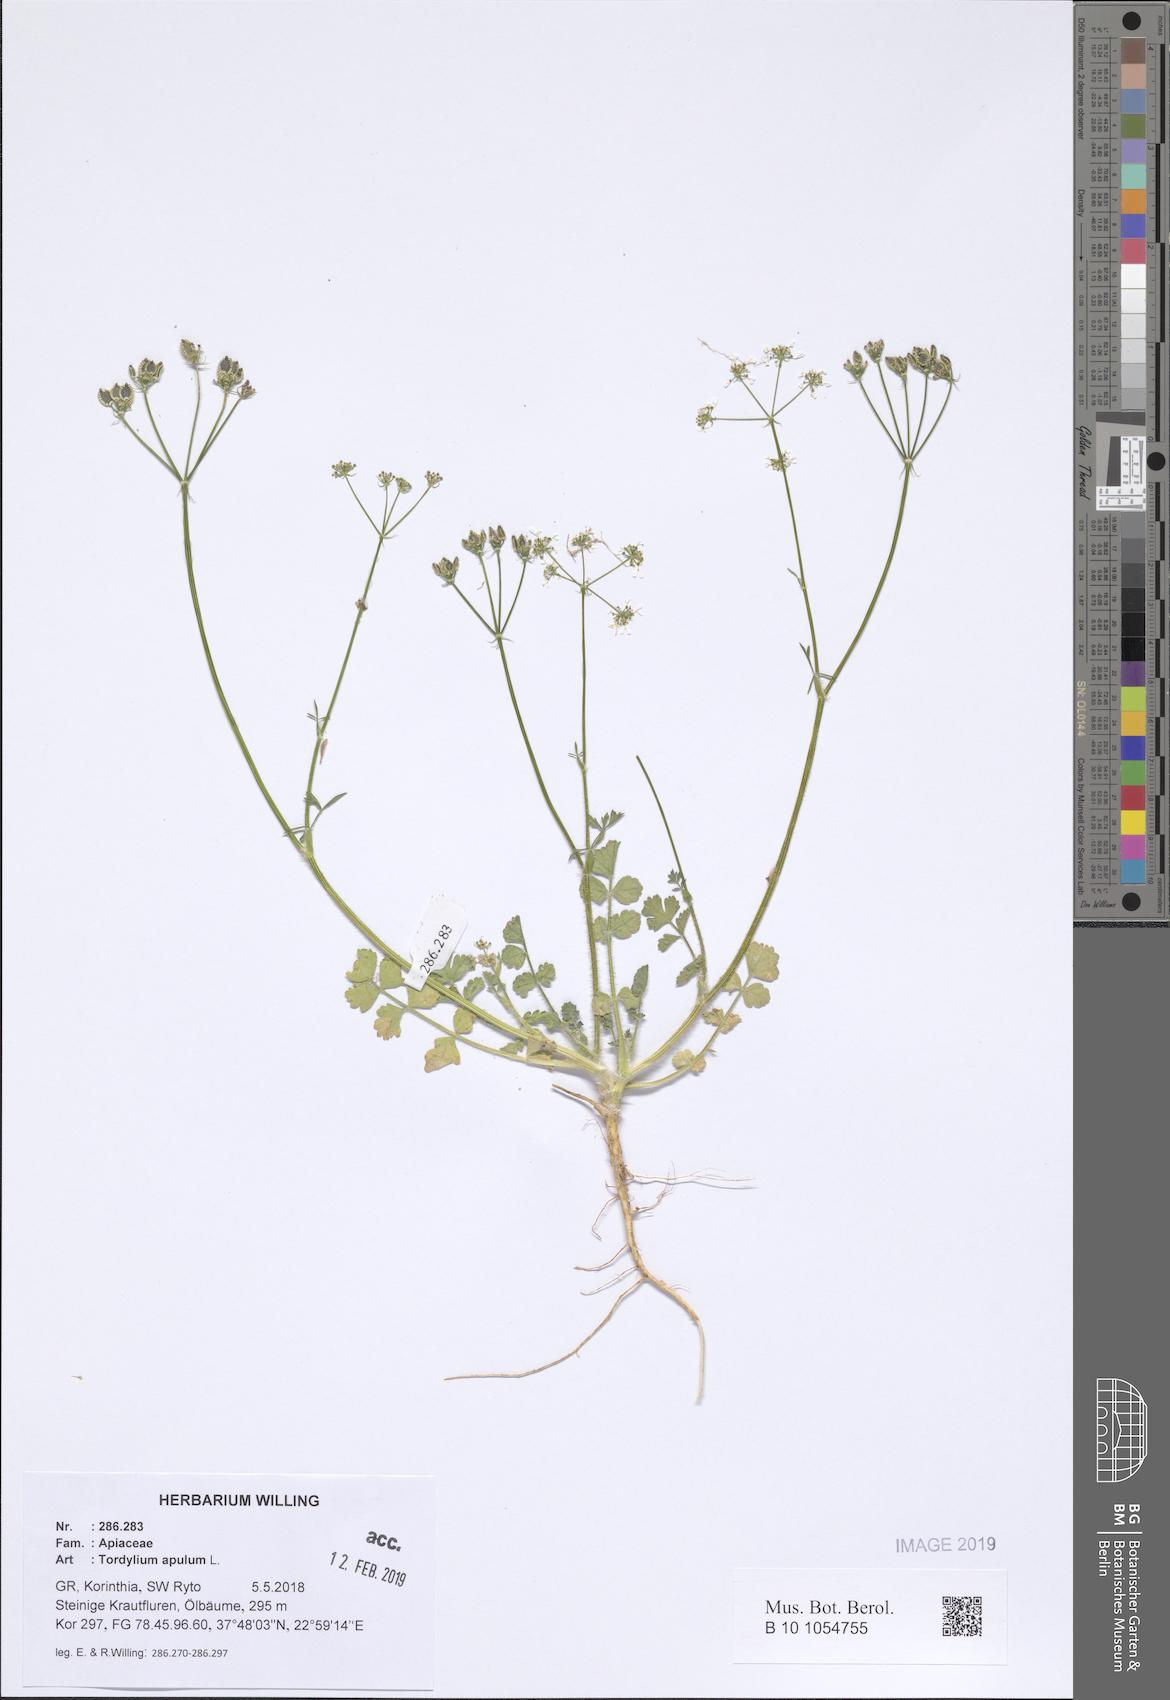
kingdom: Plantae
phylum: Tracheophyta
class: Magnoliopsida
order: Apiales
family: Apiaceae
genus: Tordylium
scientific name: Tordylium apulum
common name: Mediterranean hartwort
